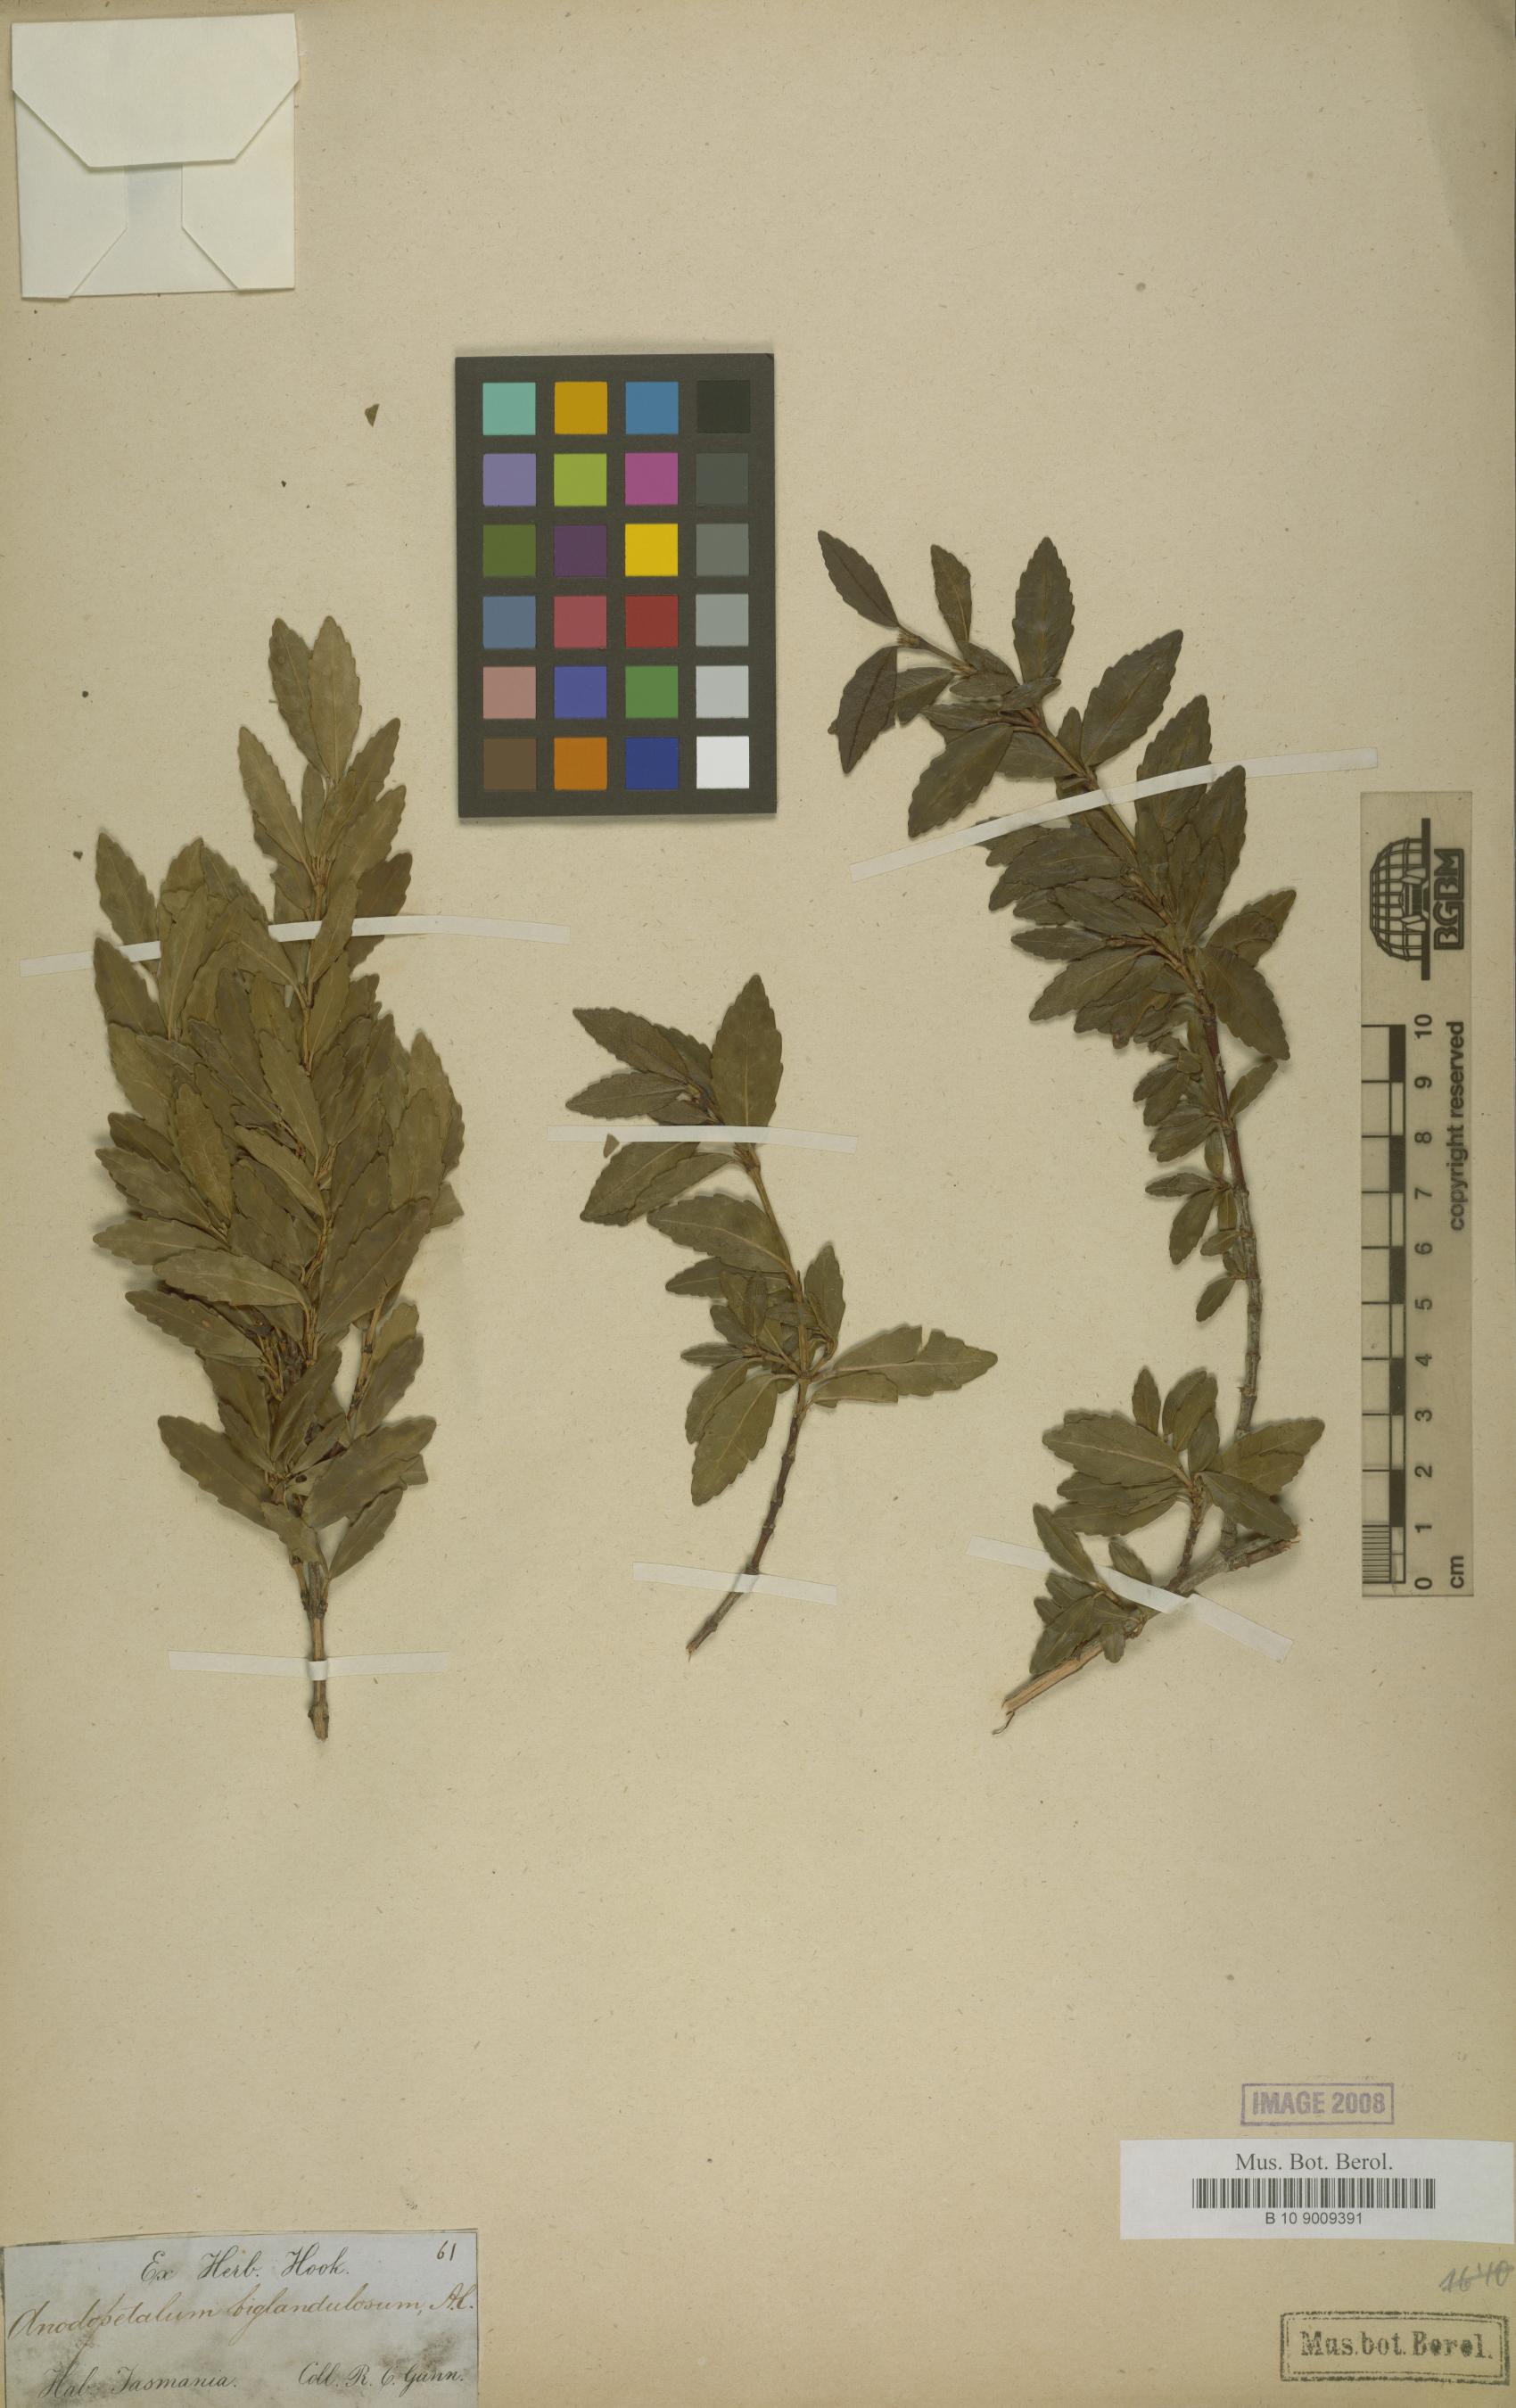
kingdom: Plantae
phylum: Tracheophyta
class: Magnoliopsida
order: Oxalidales
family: Cunoniaceae
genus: Anodopetalum
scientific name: Anodopetalum biglandulosum
